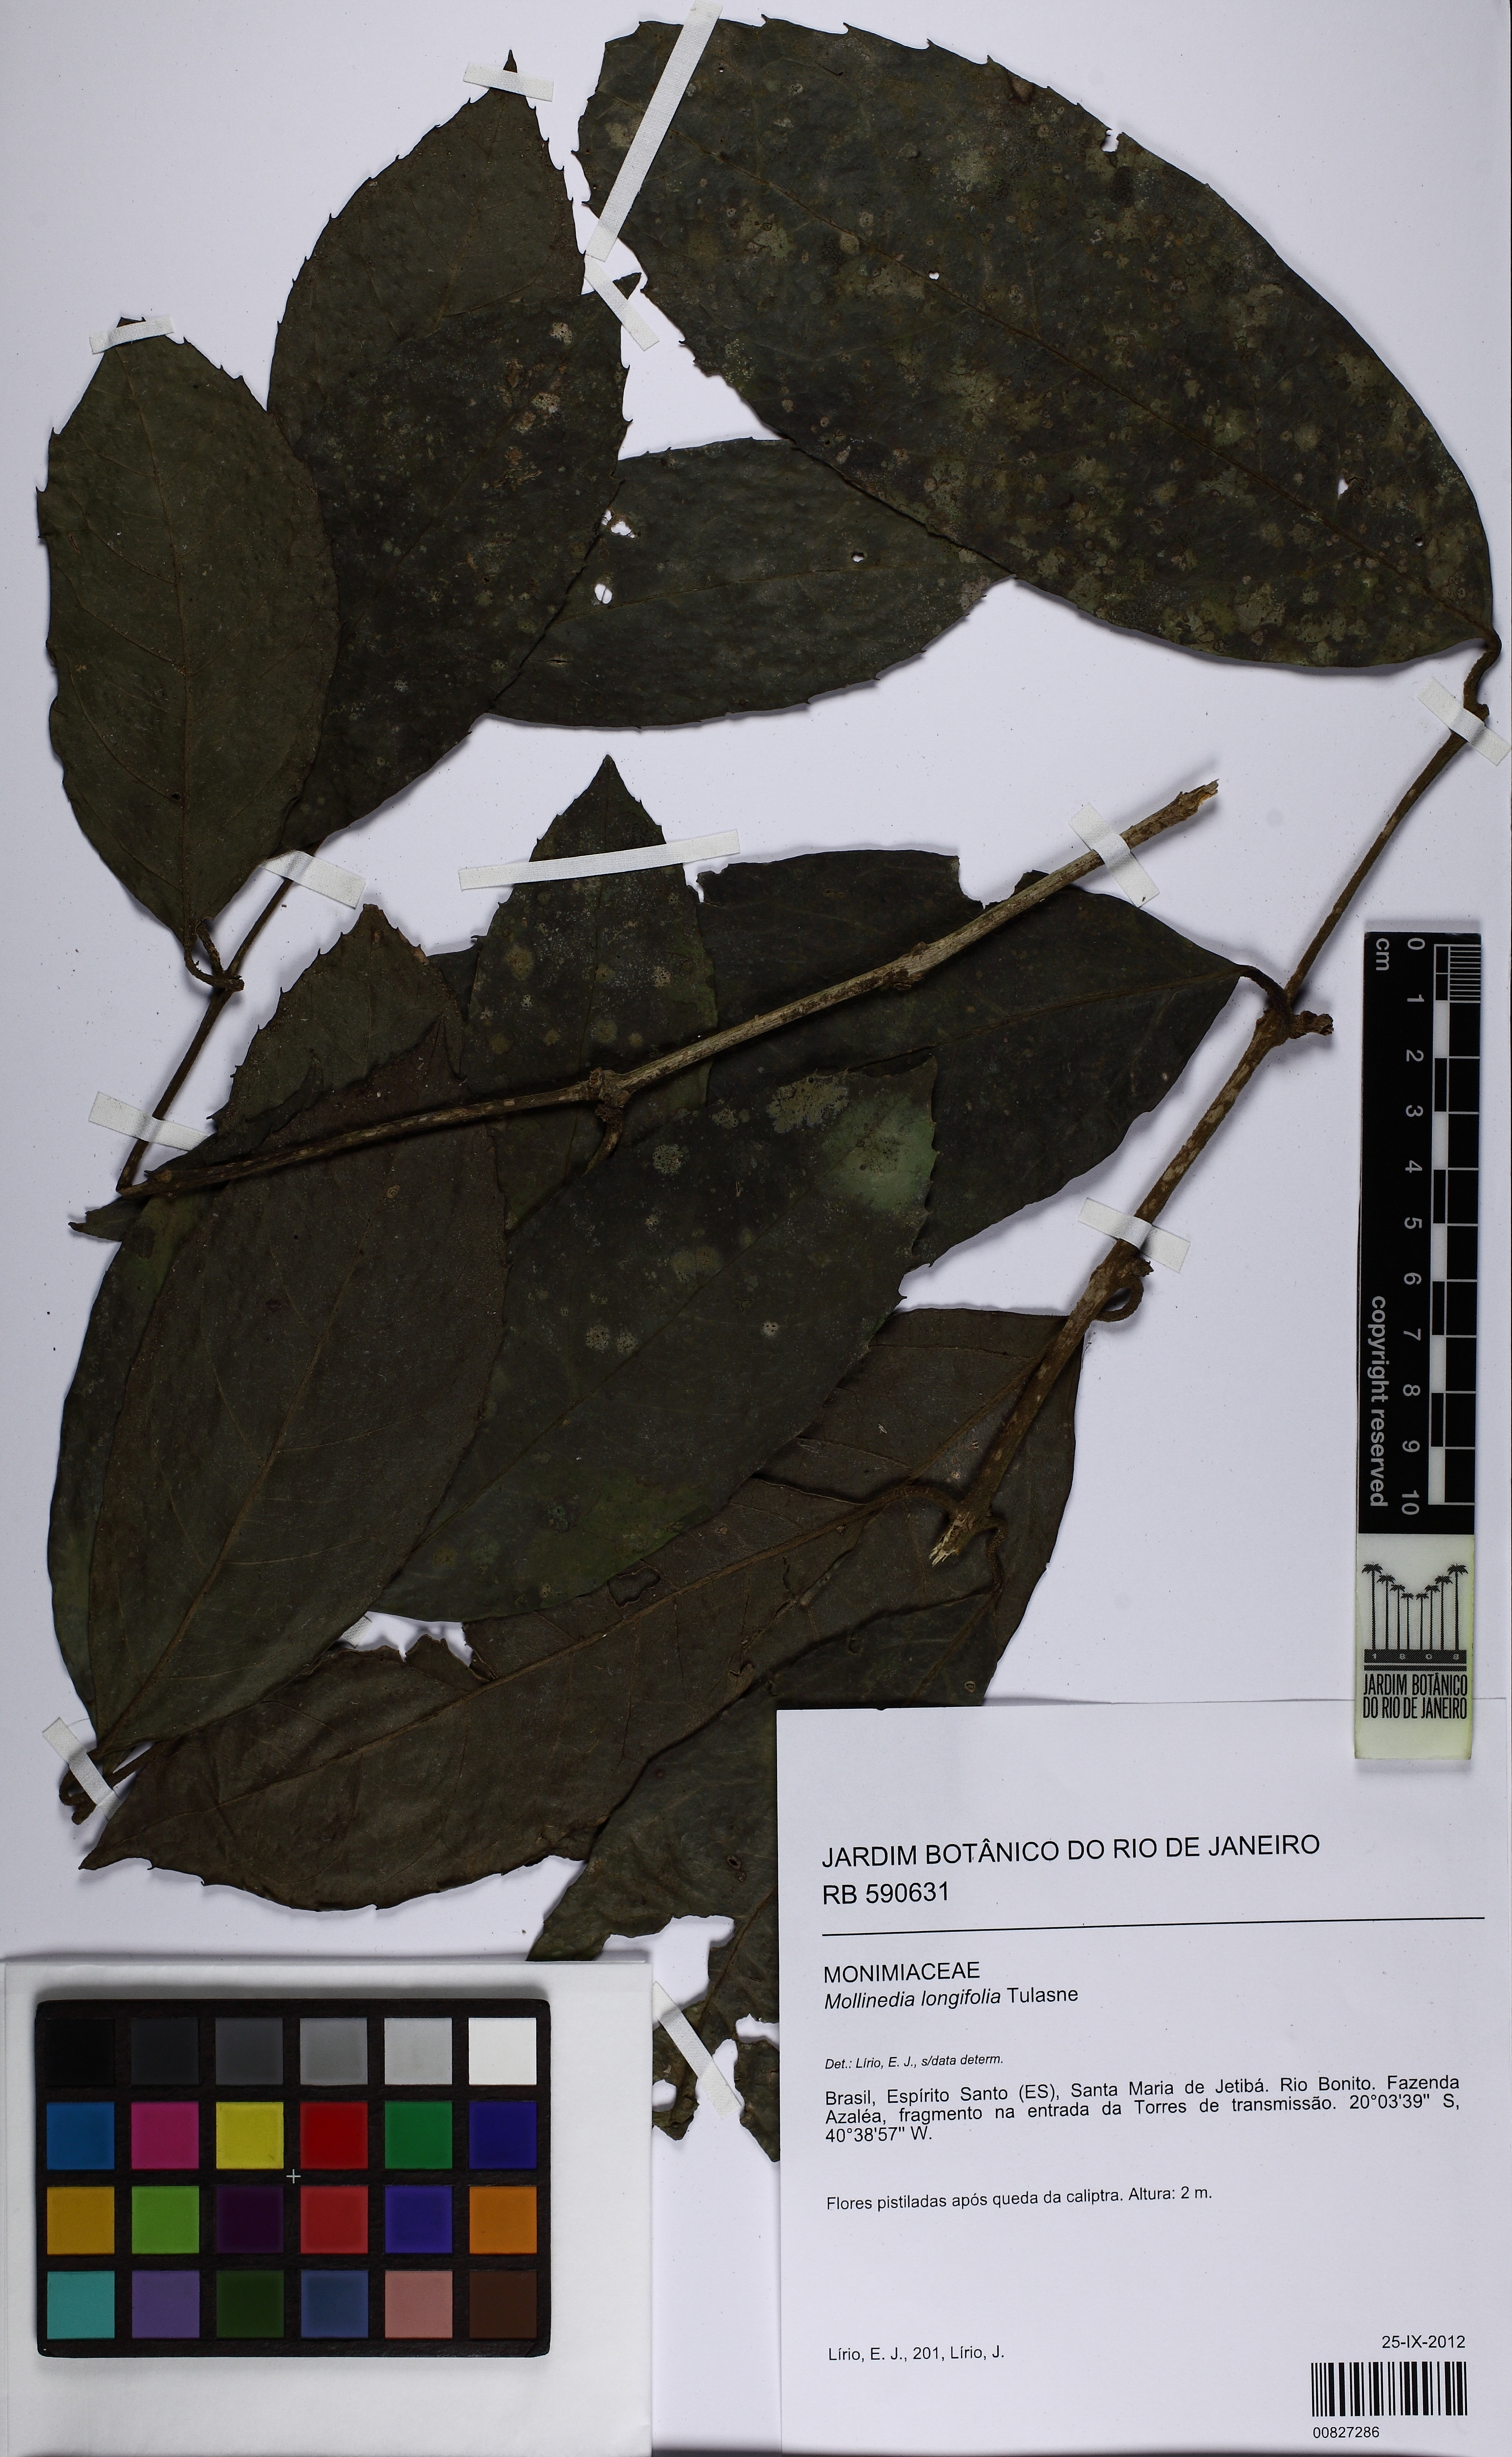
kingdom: Plantae
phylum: Tracheophyta
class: Magnoliopsida
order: Laurales
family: Monimiaceae
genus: Mollinedia
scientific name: Mollinedia longifolia
